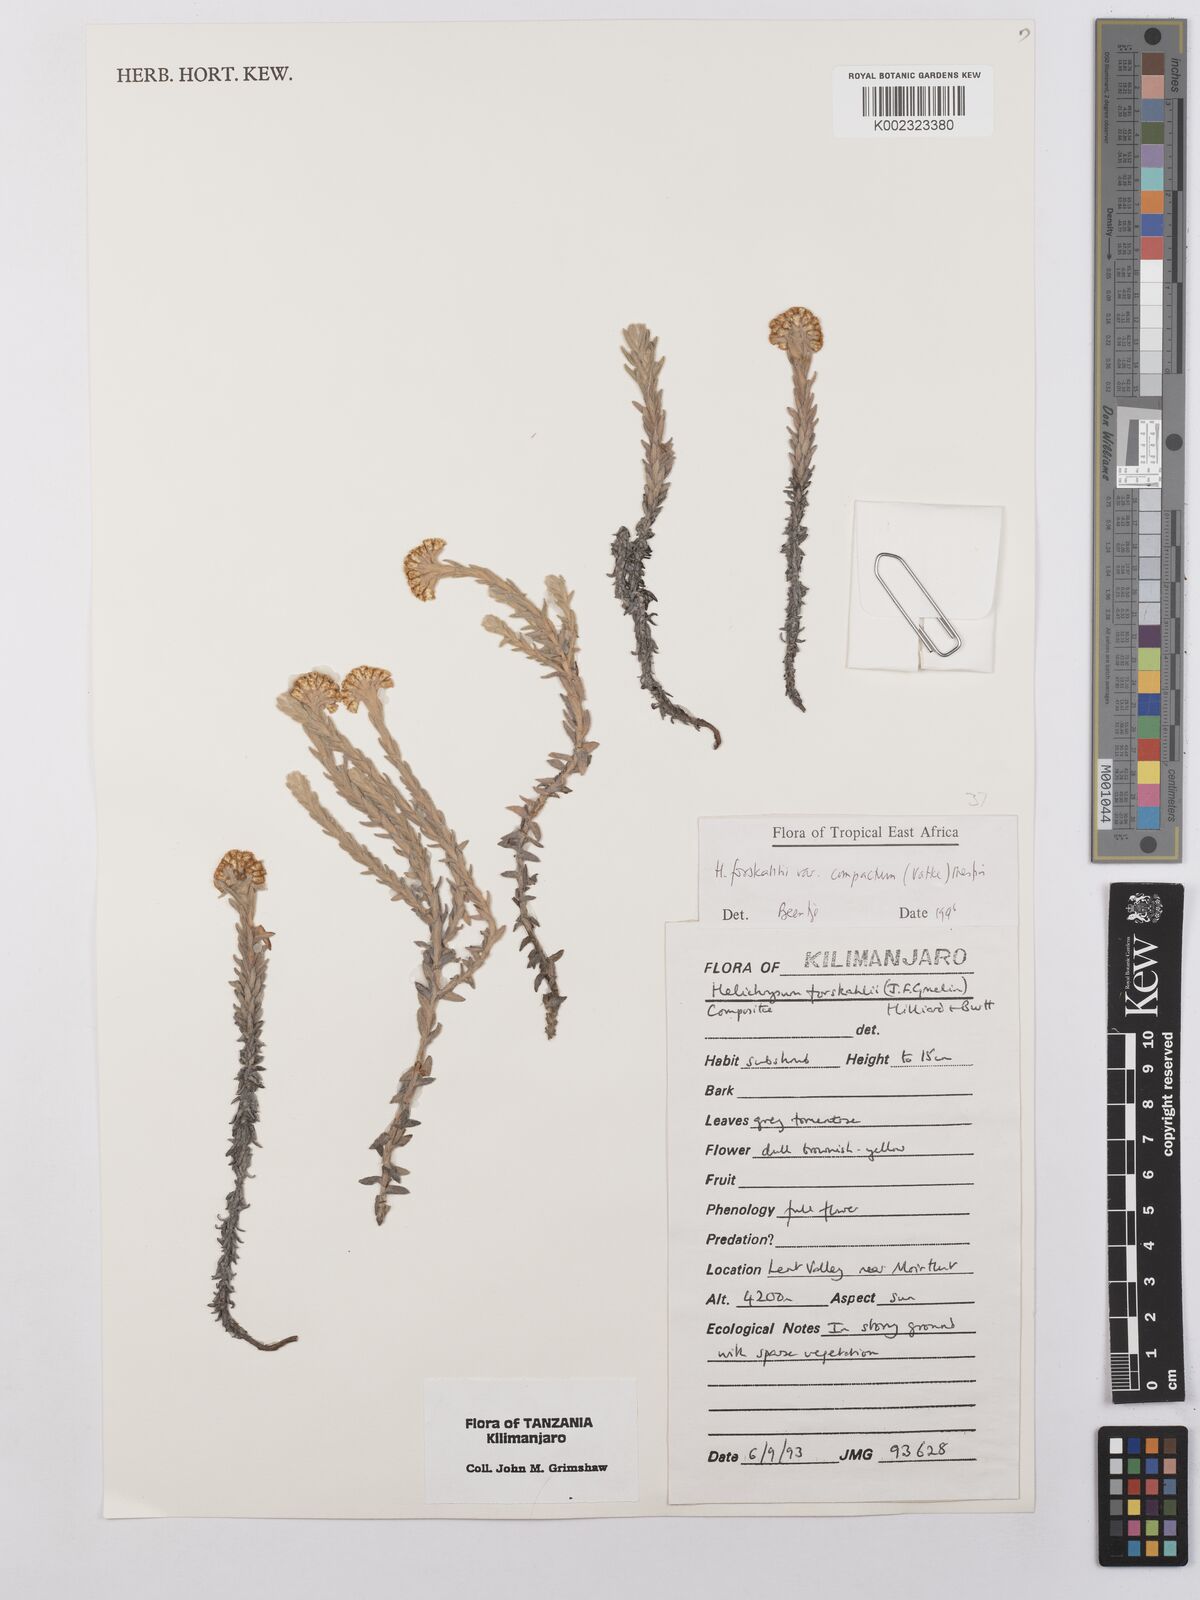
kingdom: Plantae
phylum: Tracheophyta
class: Magnoliopsida
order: Asterales
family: Asteraceae
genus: Helichrysum
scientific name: Helichrysum forskahlii
